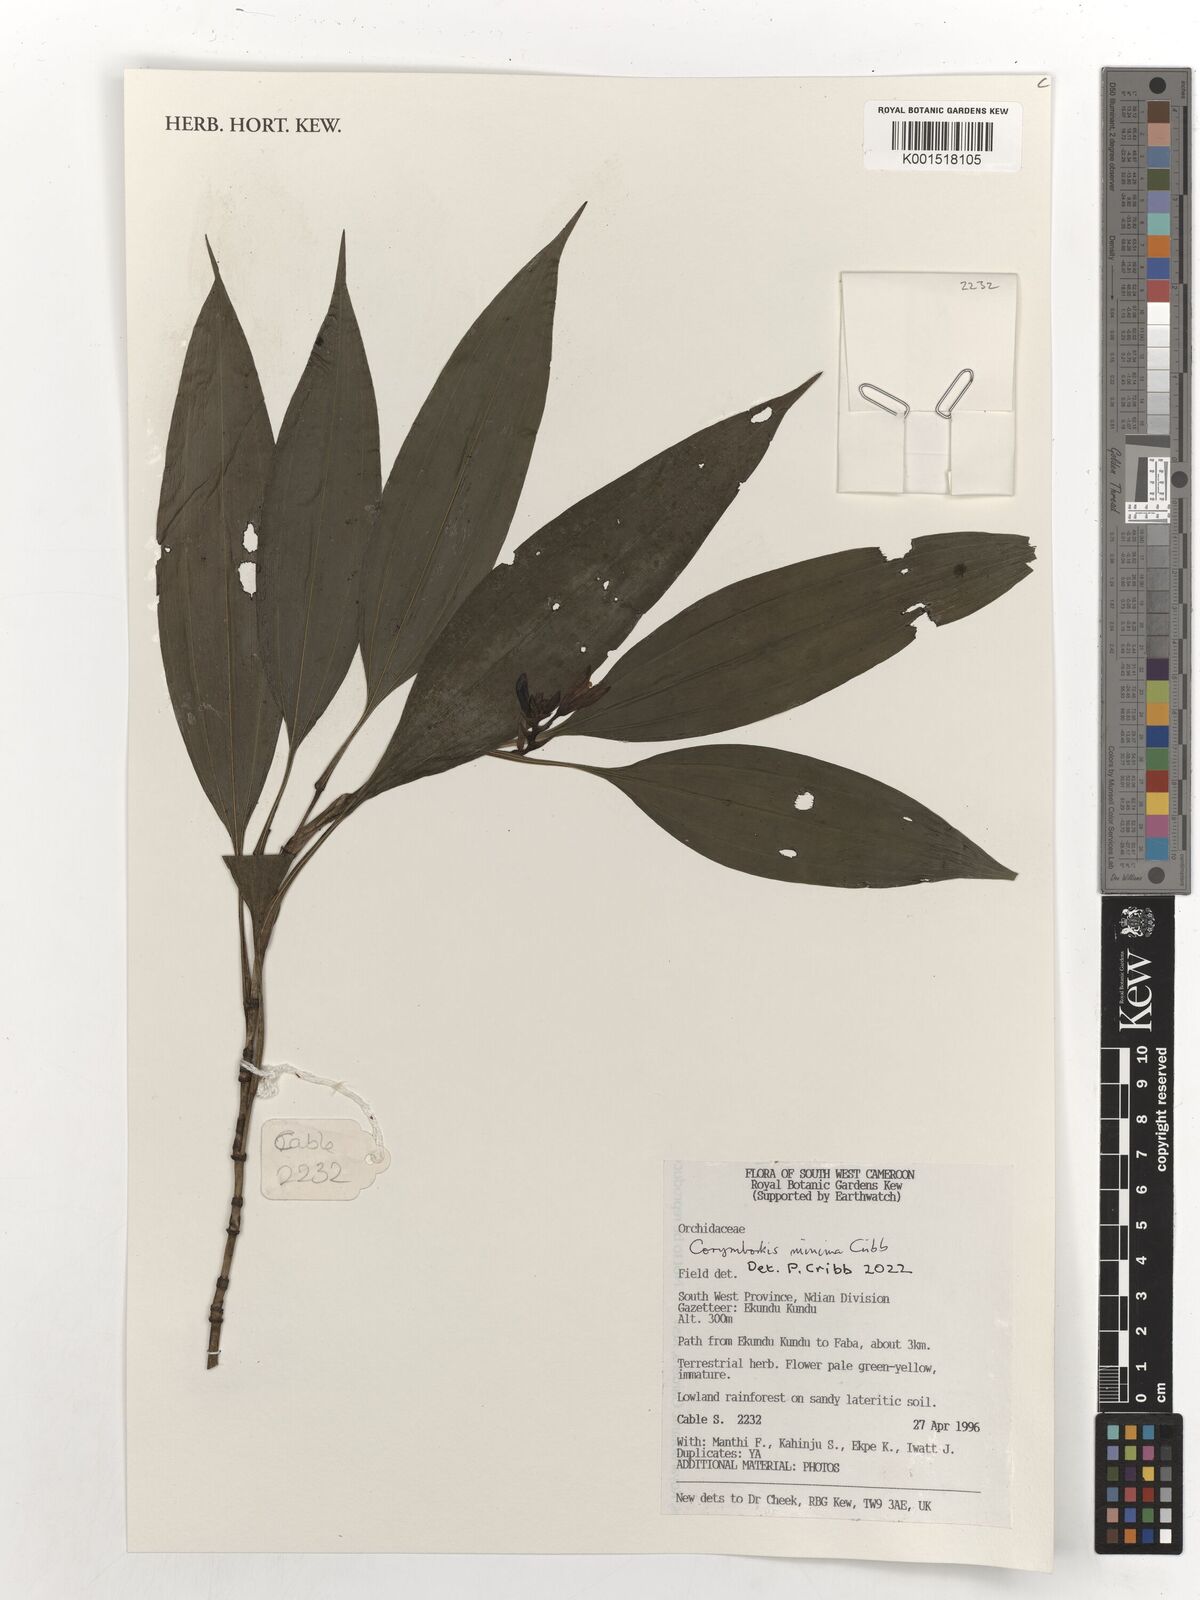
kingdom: Plantae
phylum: Tracheophyta
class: Liliopsida
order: Asparagales
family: Orchidaceae
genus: Corymborkis
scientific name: Corymborkis minima
